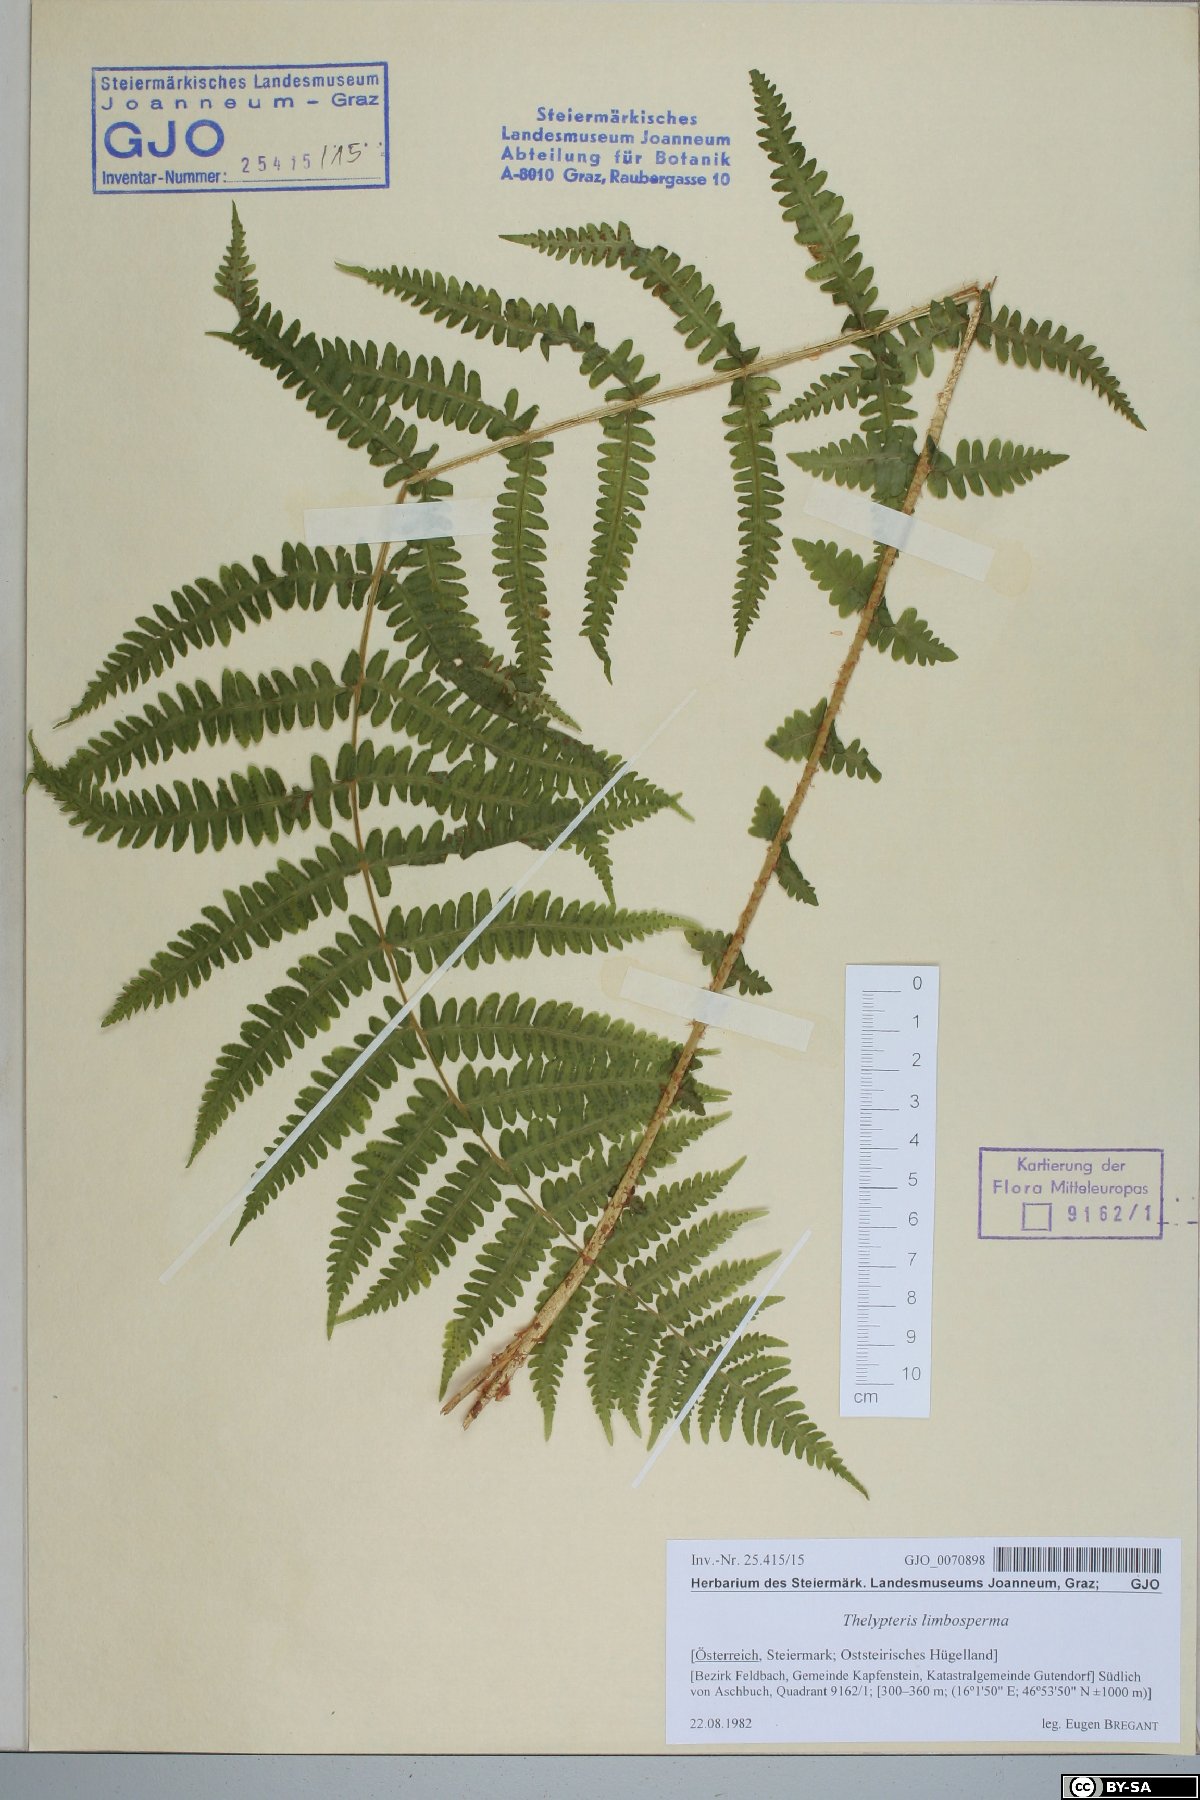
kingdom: Plantae
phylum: Tracheophyta
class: Polypodiopsida
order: Polypodiales
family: Thelypteridaceae
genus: Oreopteris
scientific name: Oreopteris limbosperma
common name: Lemon-scented fern
